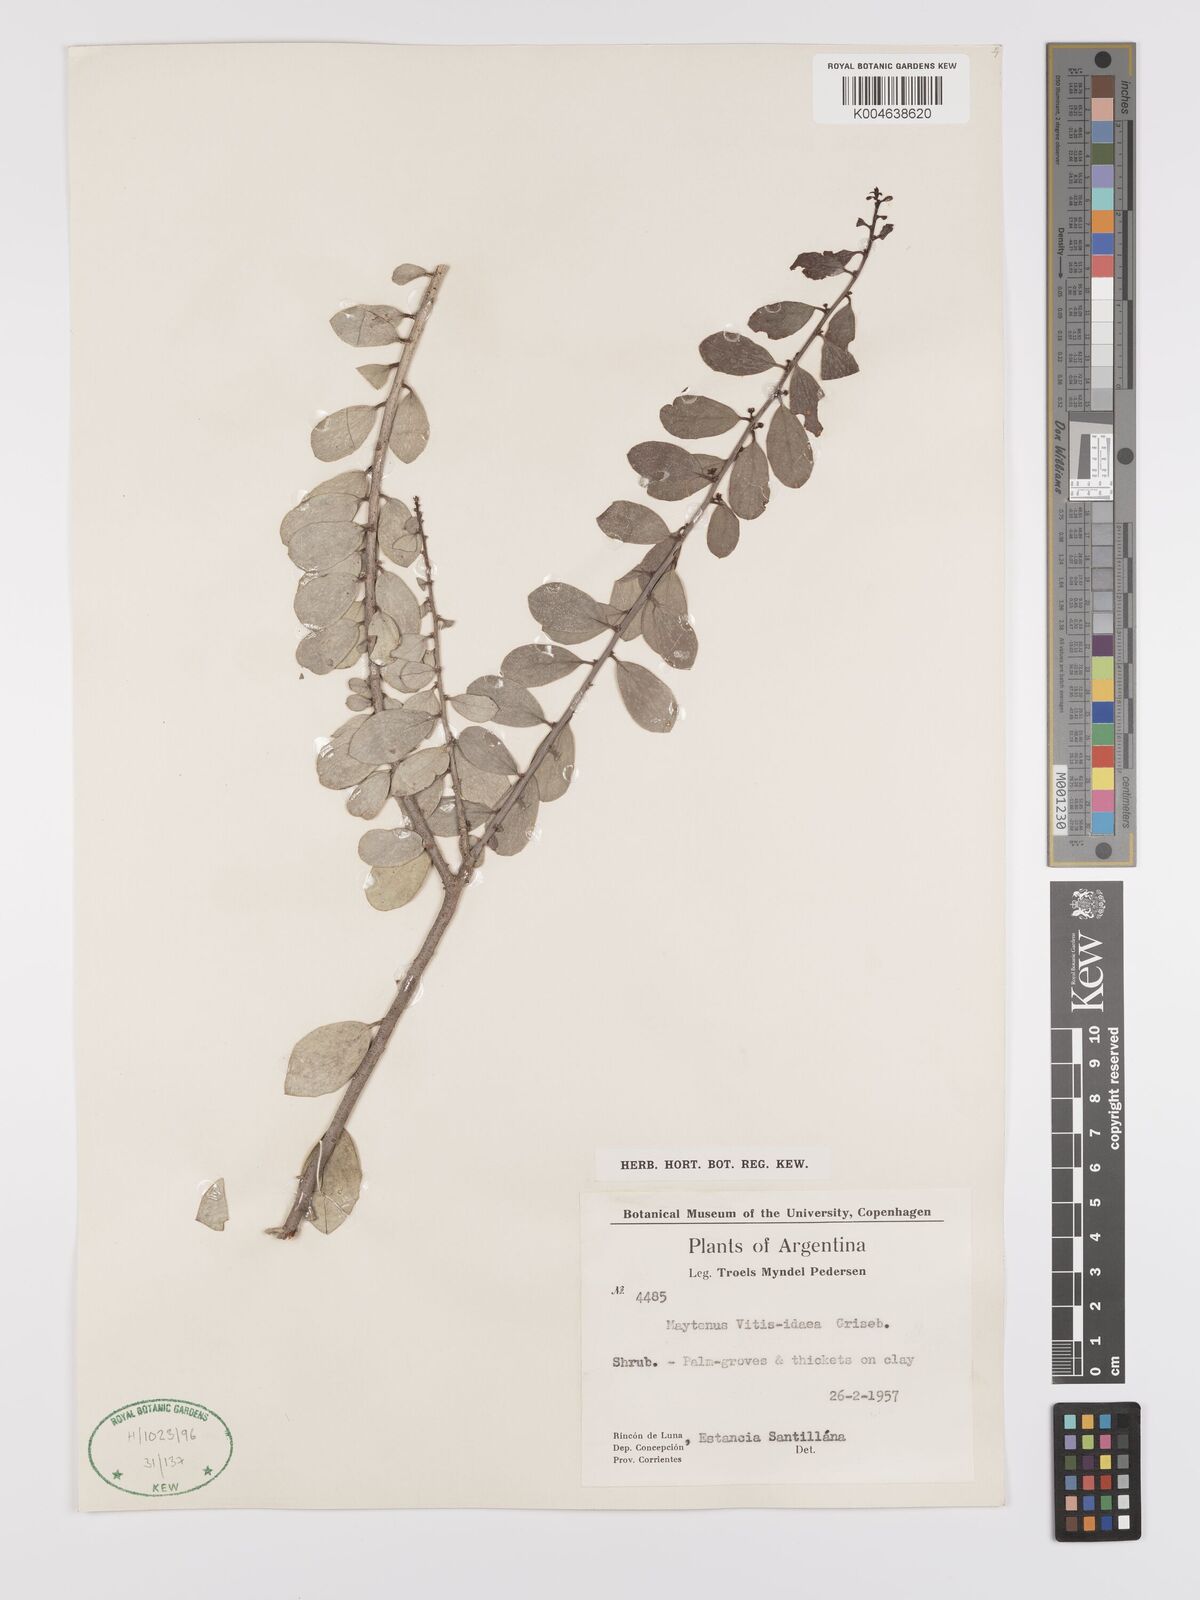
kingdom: Plantae
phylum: Tracheophyta
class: Magnoliopsida
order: Celastrales
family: Celastraceae
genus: Tricerma
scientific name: Tricerma vitis-idaeum
